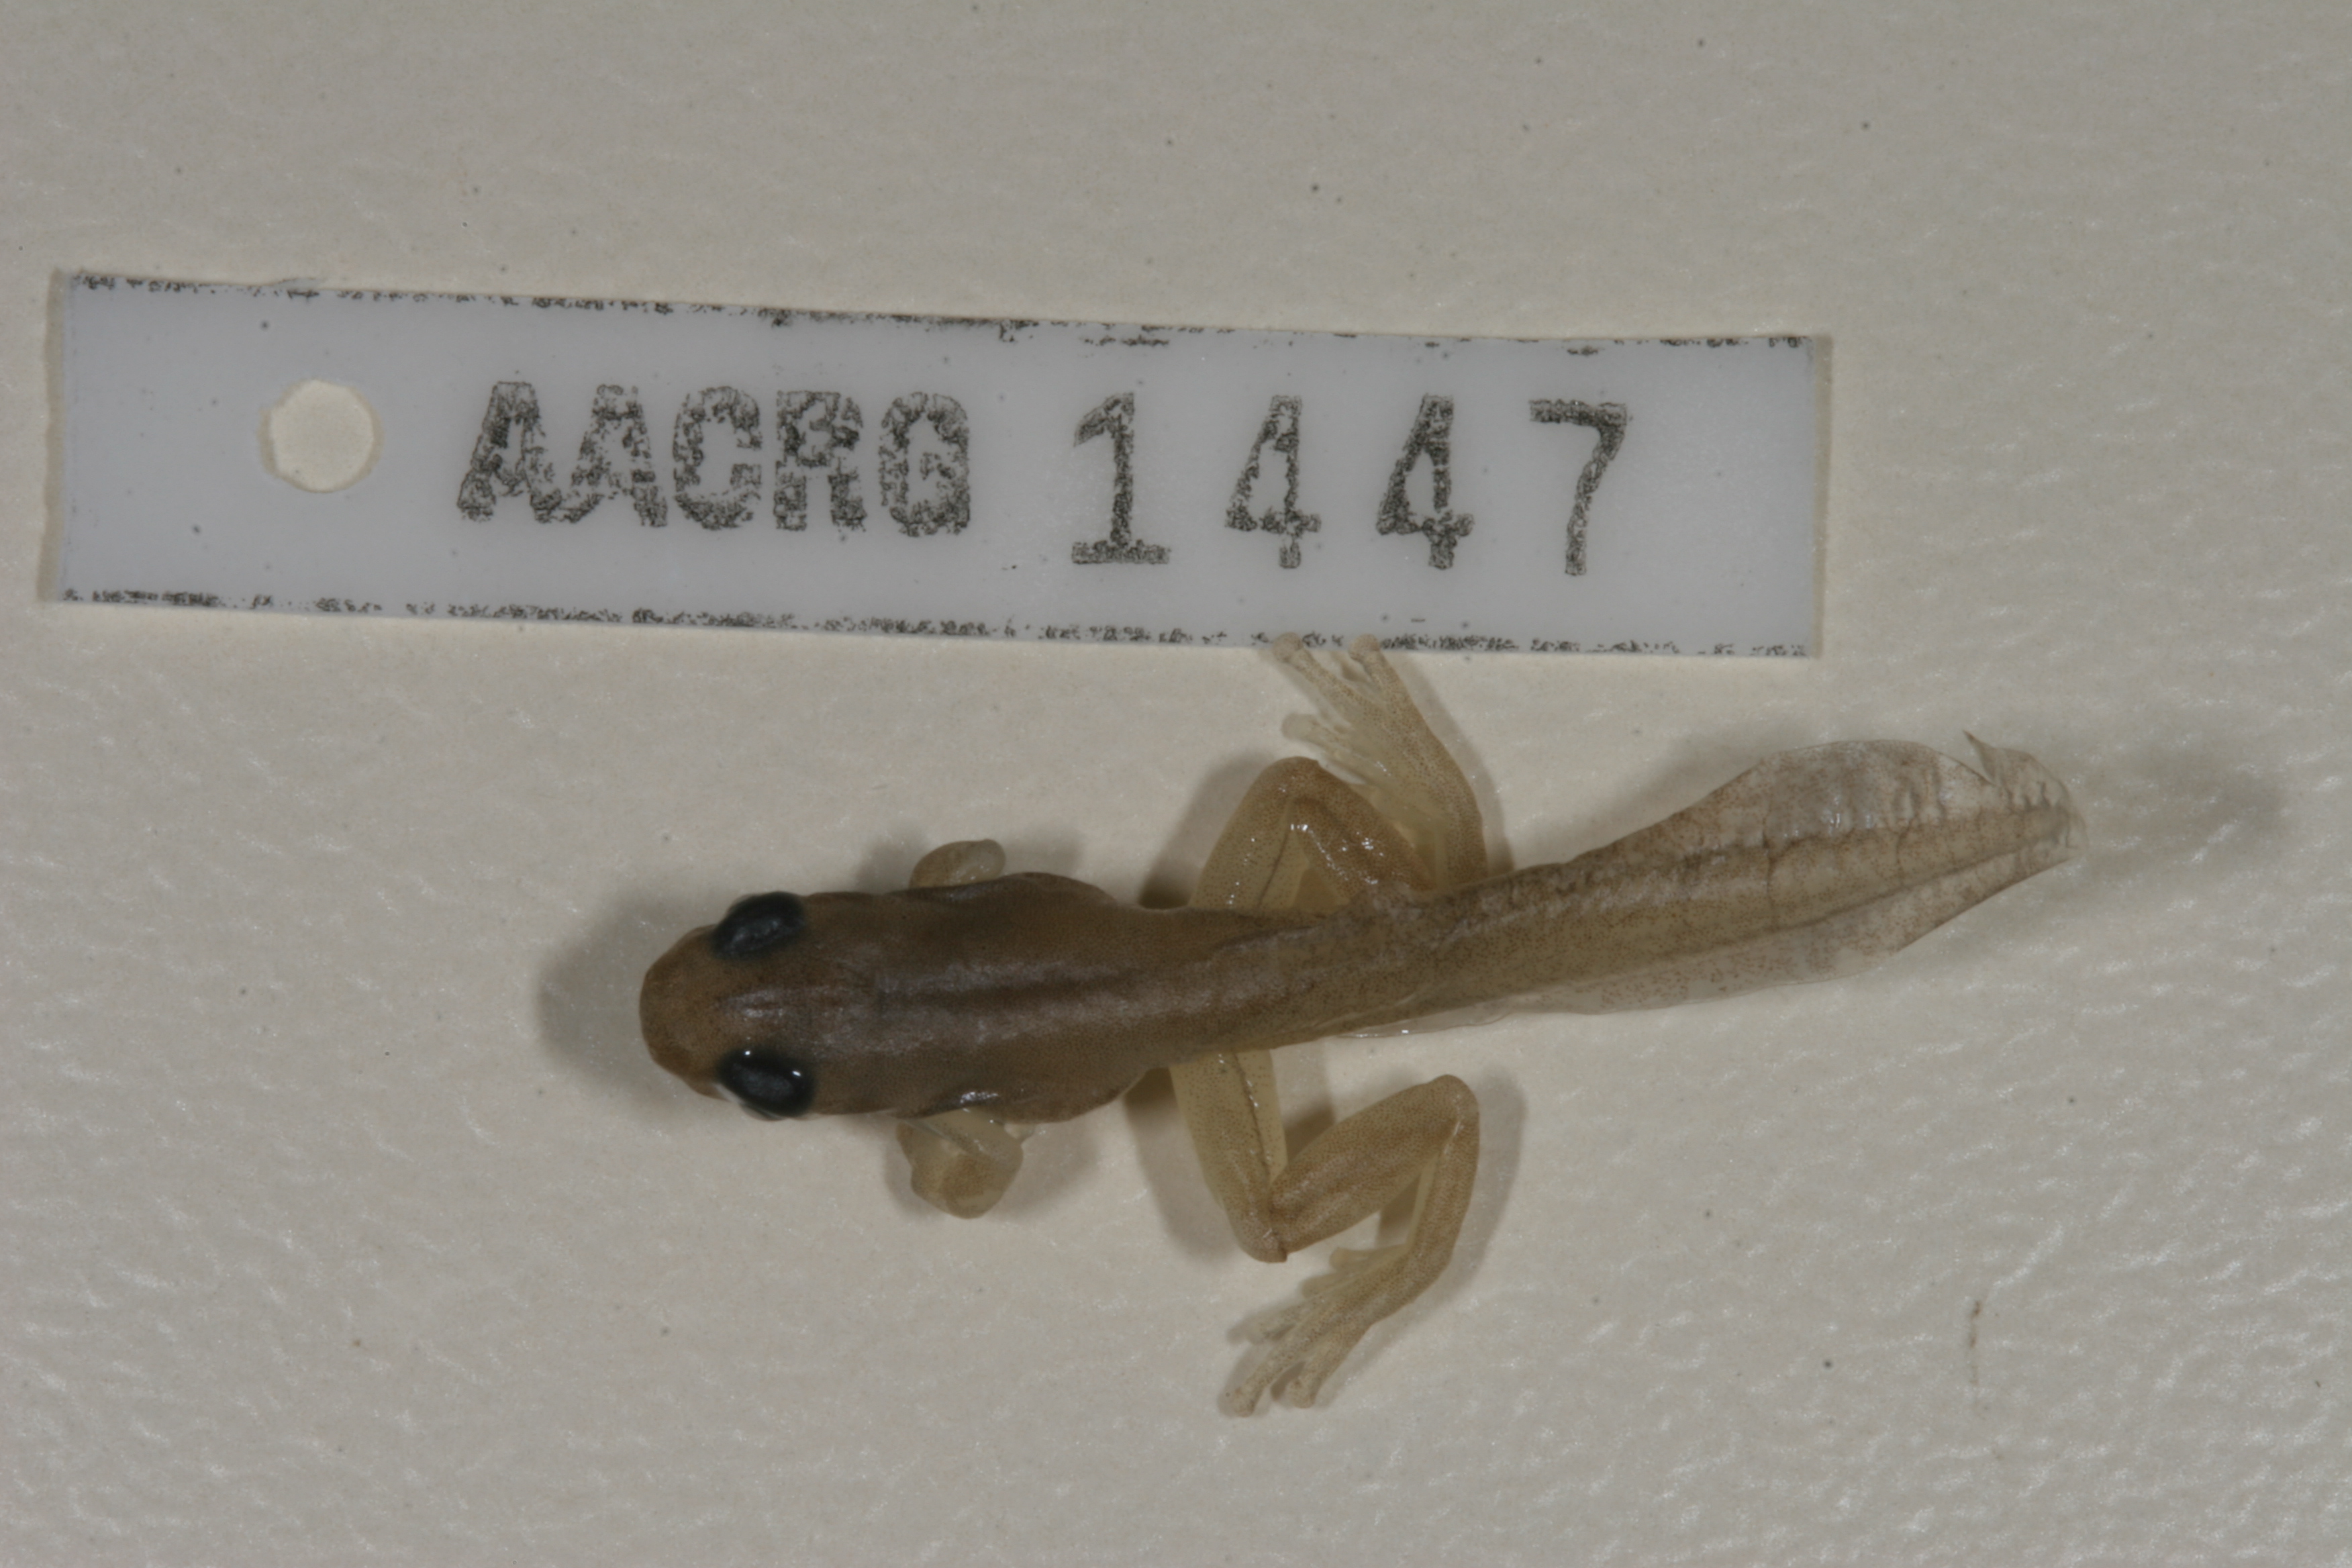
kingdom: Animalia
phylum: Chordata
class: Amphibia
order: Anura
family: Hyperoliidae
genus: Hyperolius
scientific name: Hyperolius marmoratus
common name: Painted reed frog
